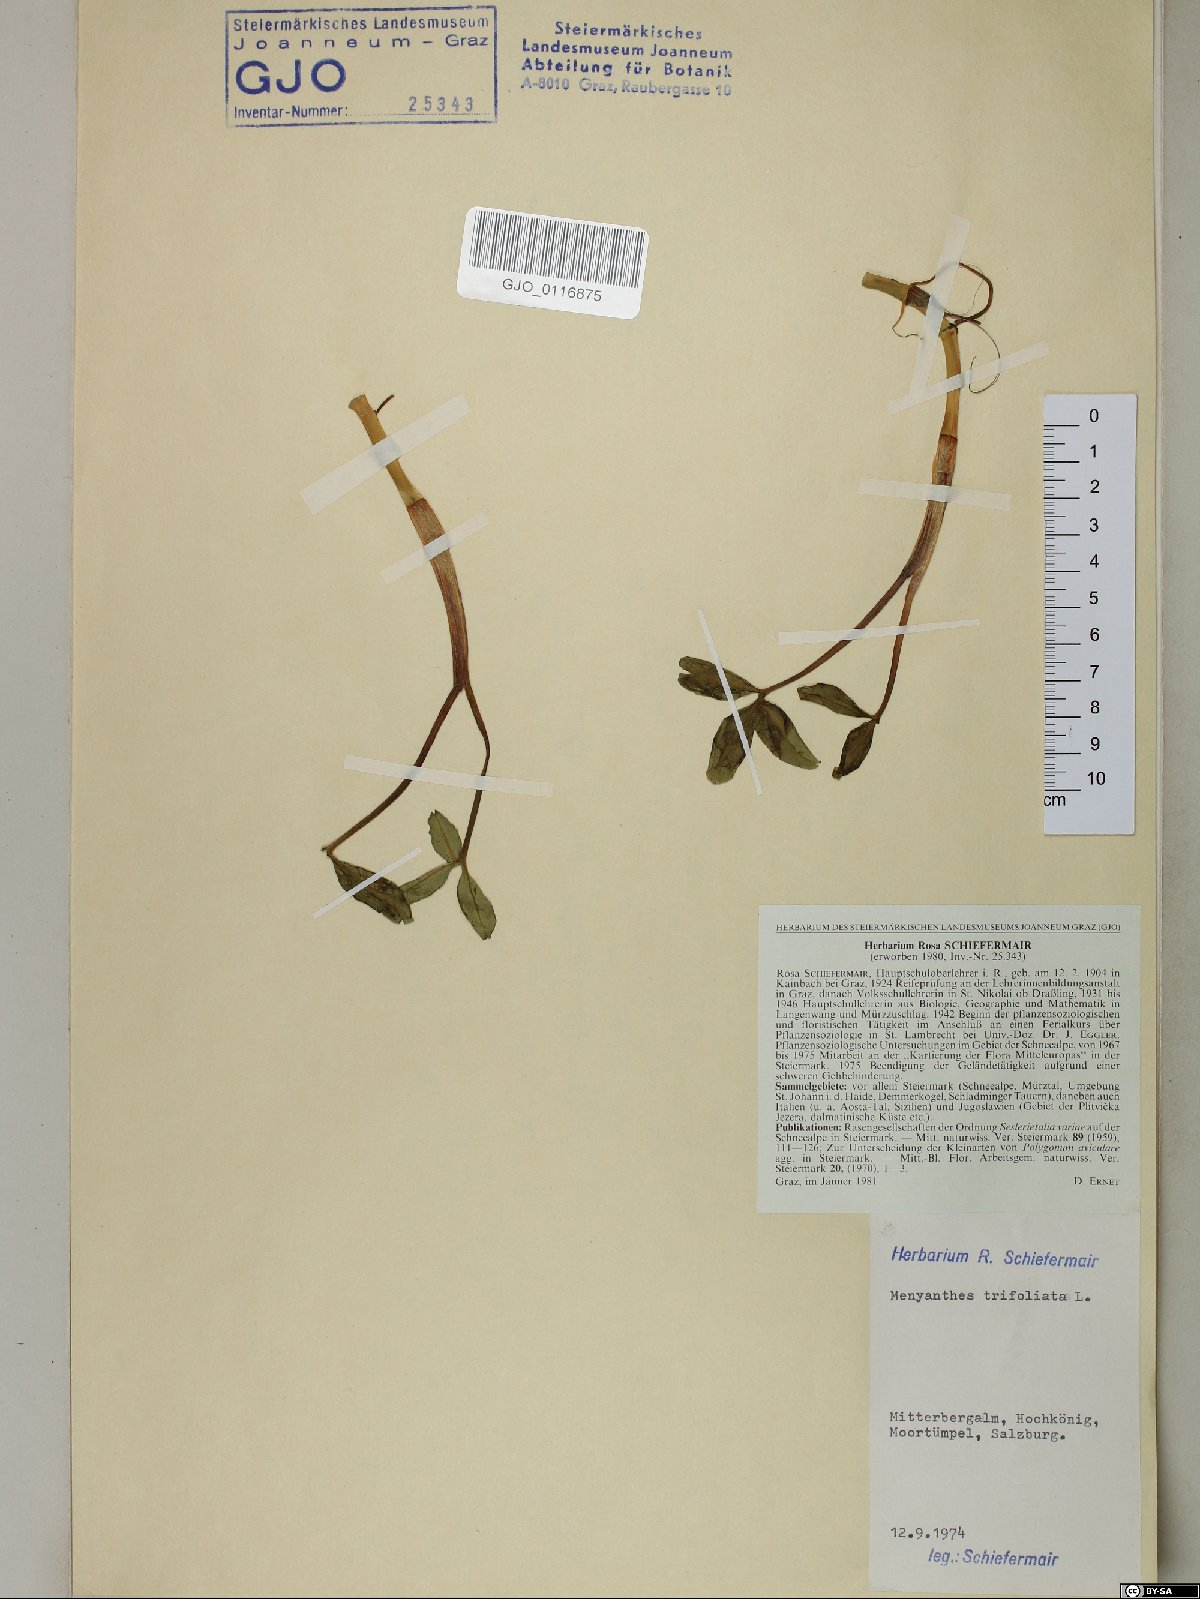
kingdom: Plantae
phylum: Tracheophyta
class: Magnoliopsida
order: Asterales
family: Menyanthaceae
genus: Menyanthes
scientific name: Menyanthes trifoliata
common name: Bogbean
